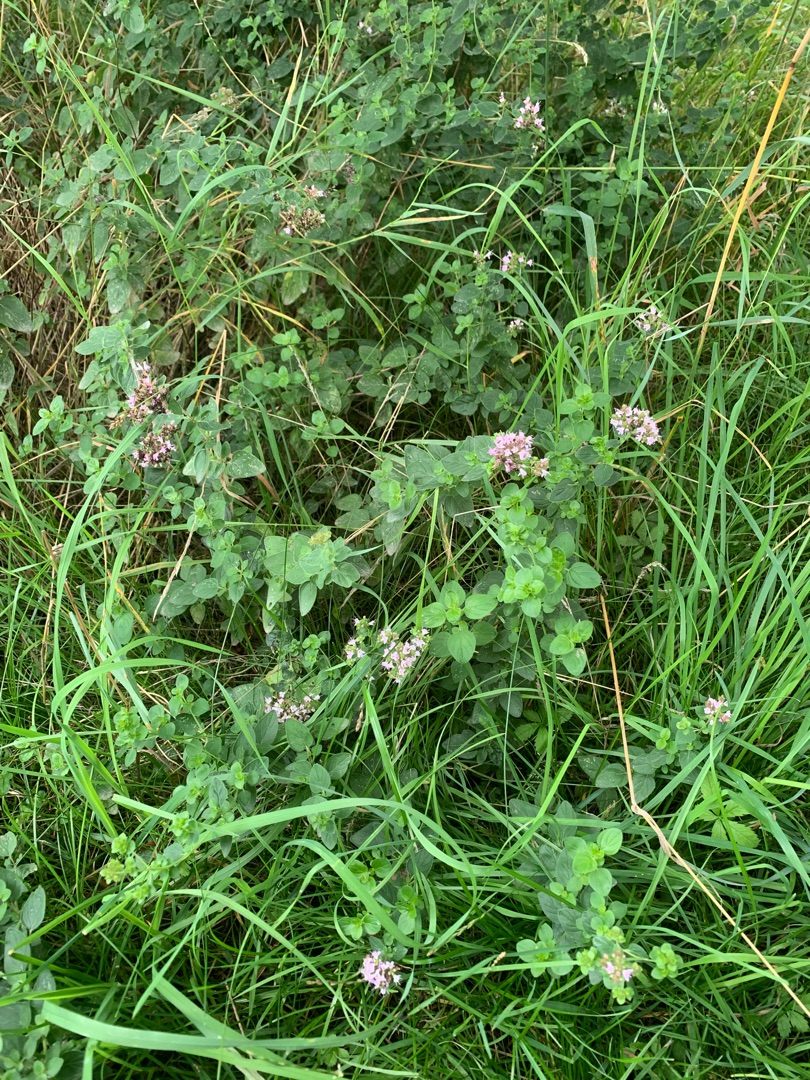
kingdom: Plantae
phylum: Tracheophyta
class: Magnoliopsida
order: Lamiales
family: Lamiaceae
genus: Origanum
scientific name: Origanum vulgare
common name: Merian
